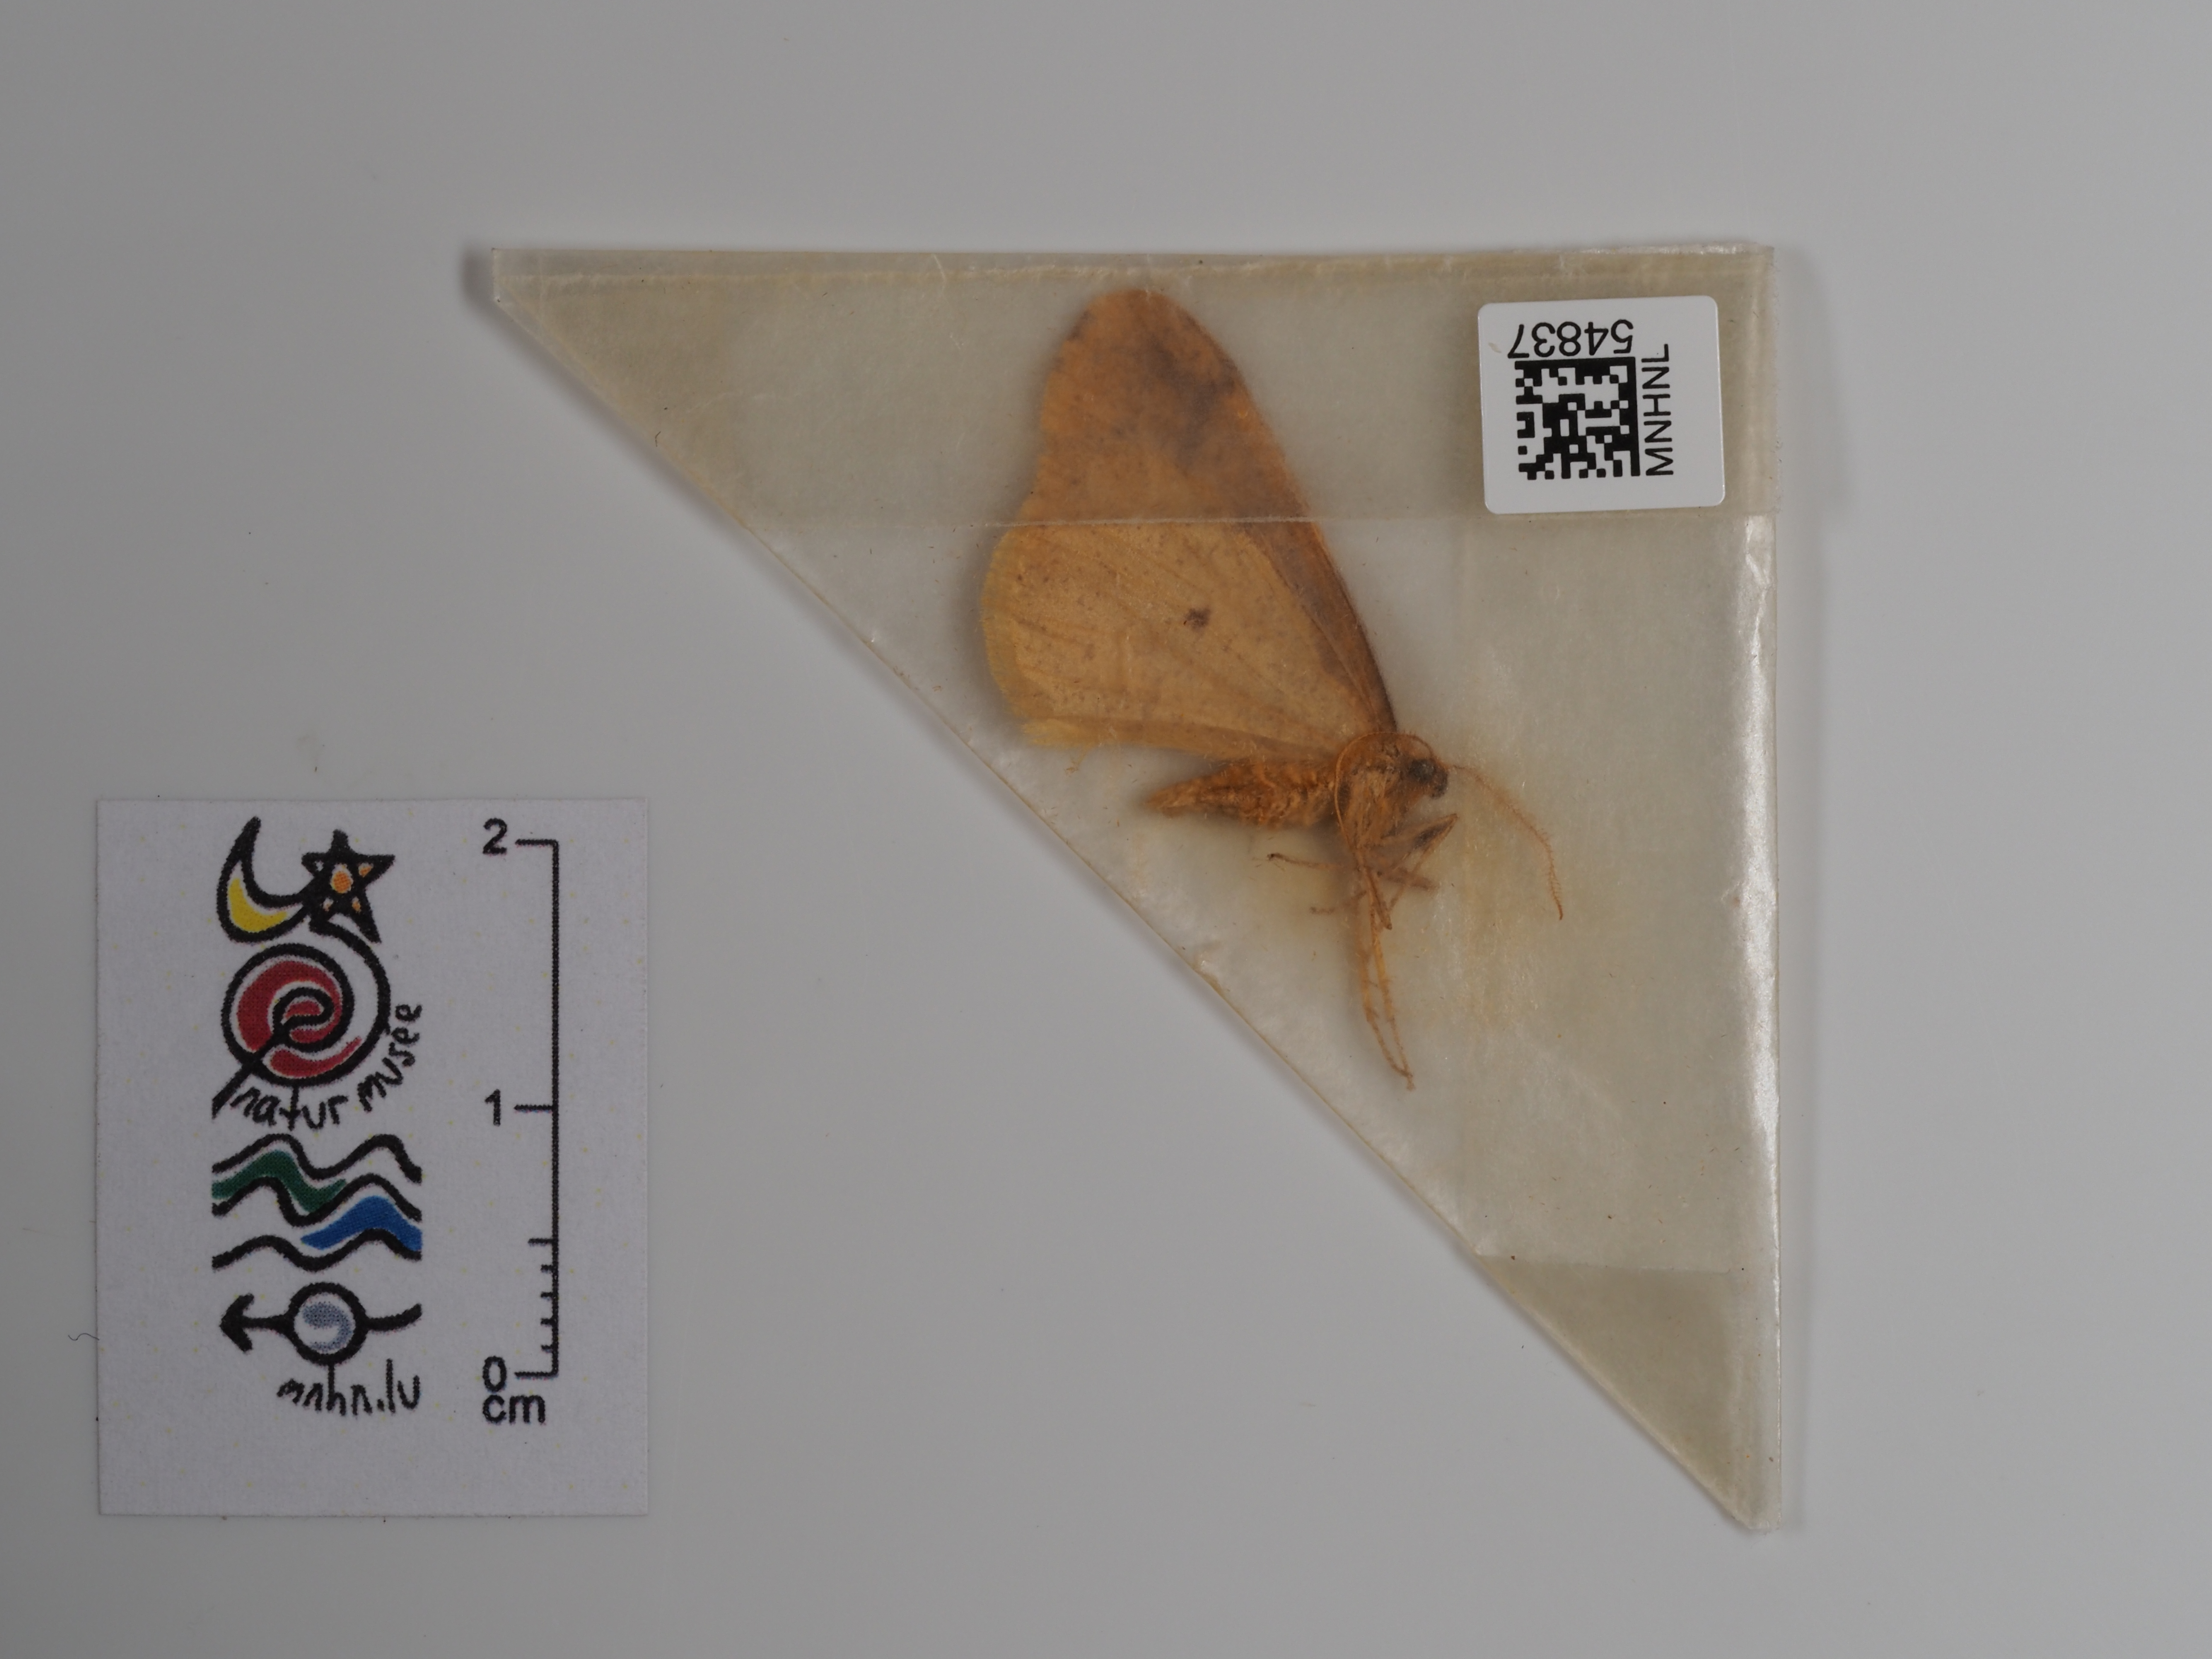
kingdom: Animalia
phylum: Arthropoda
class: Insecta
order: Lepidoptera
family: Geometridae
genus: Agriopis
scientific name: Agriopis aurantiaria
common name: Scarce umber
